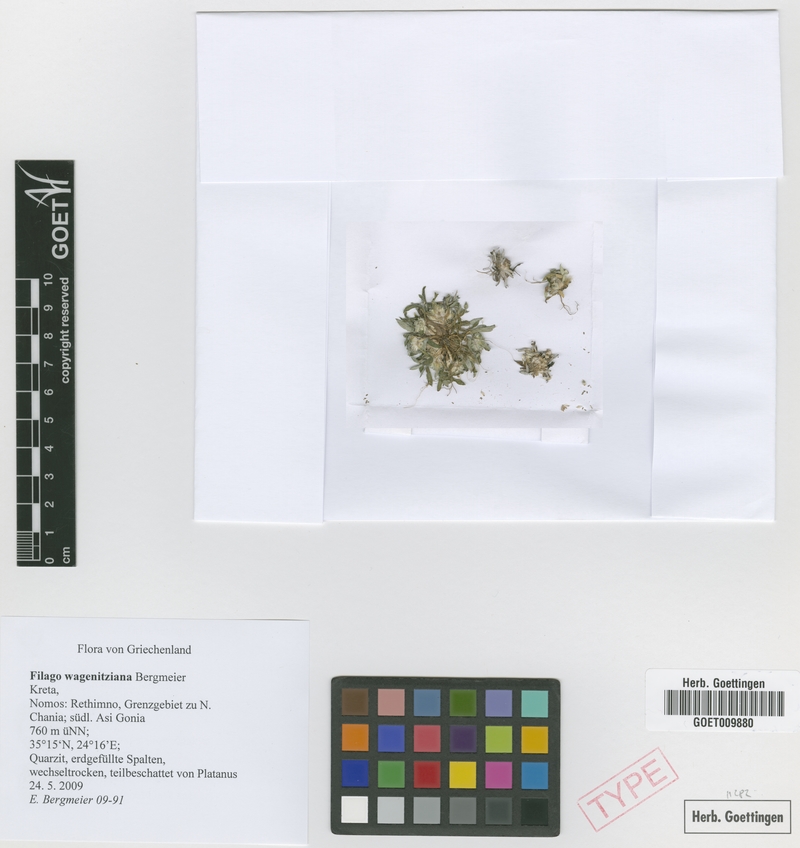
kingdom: Plantae
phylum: Tracheophyta
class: Magnoliopsida
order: Asterales
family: Asteraceae
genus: Filago
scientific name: Filago wagenitziana
